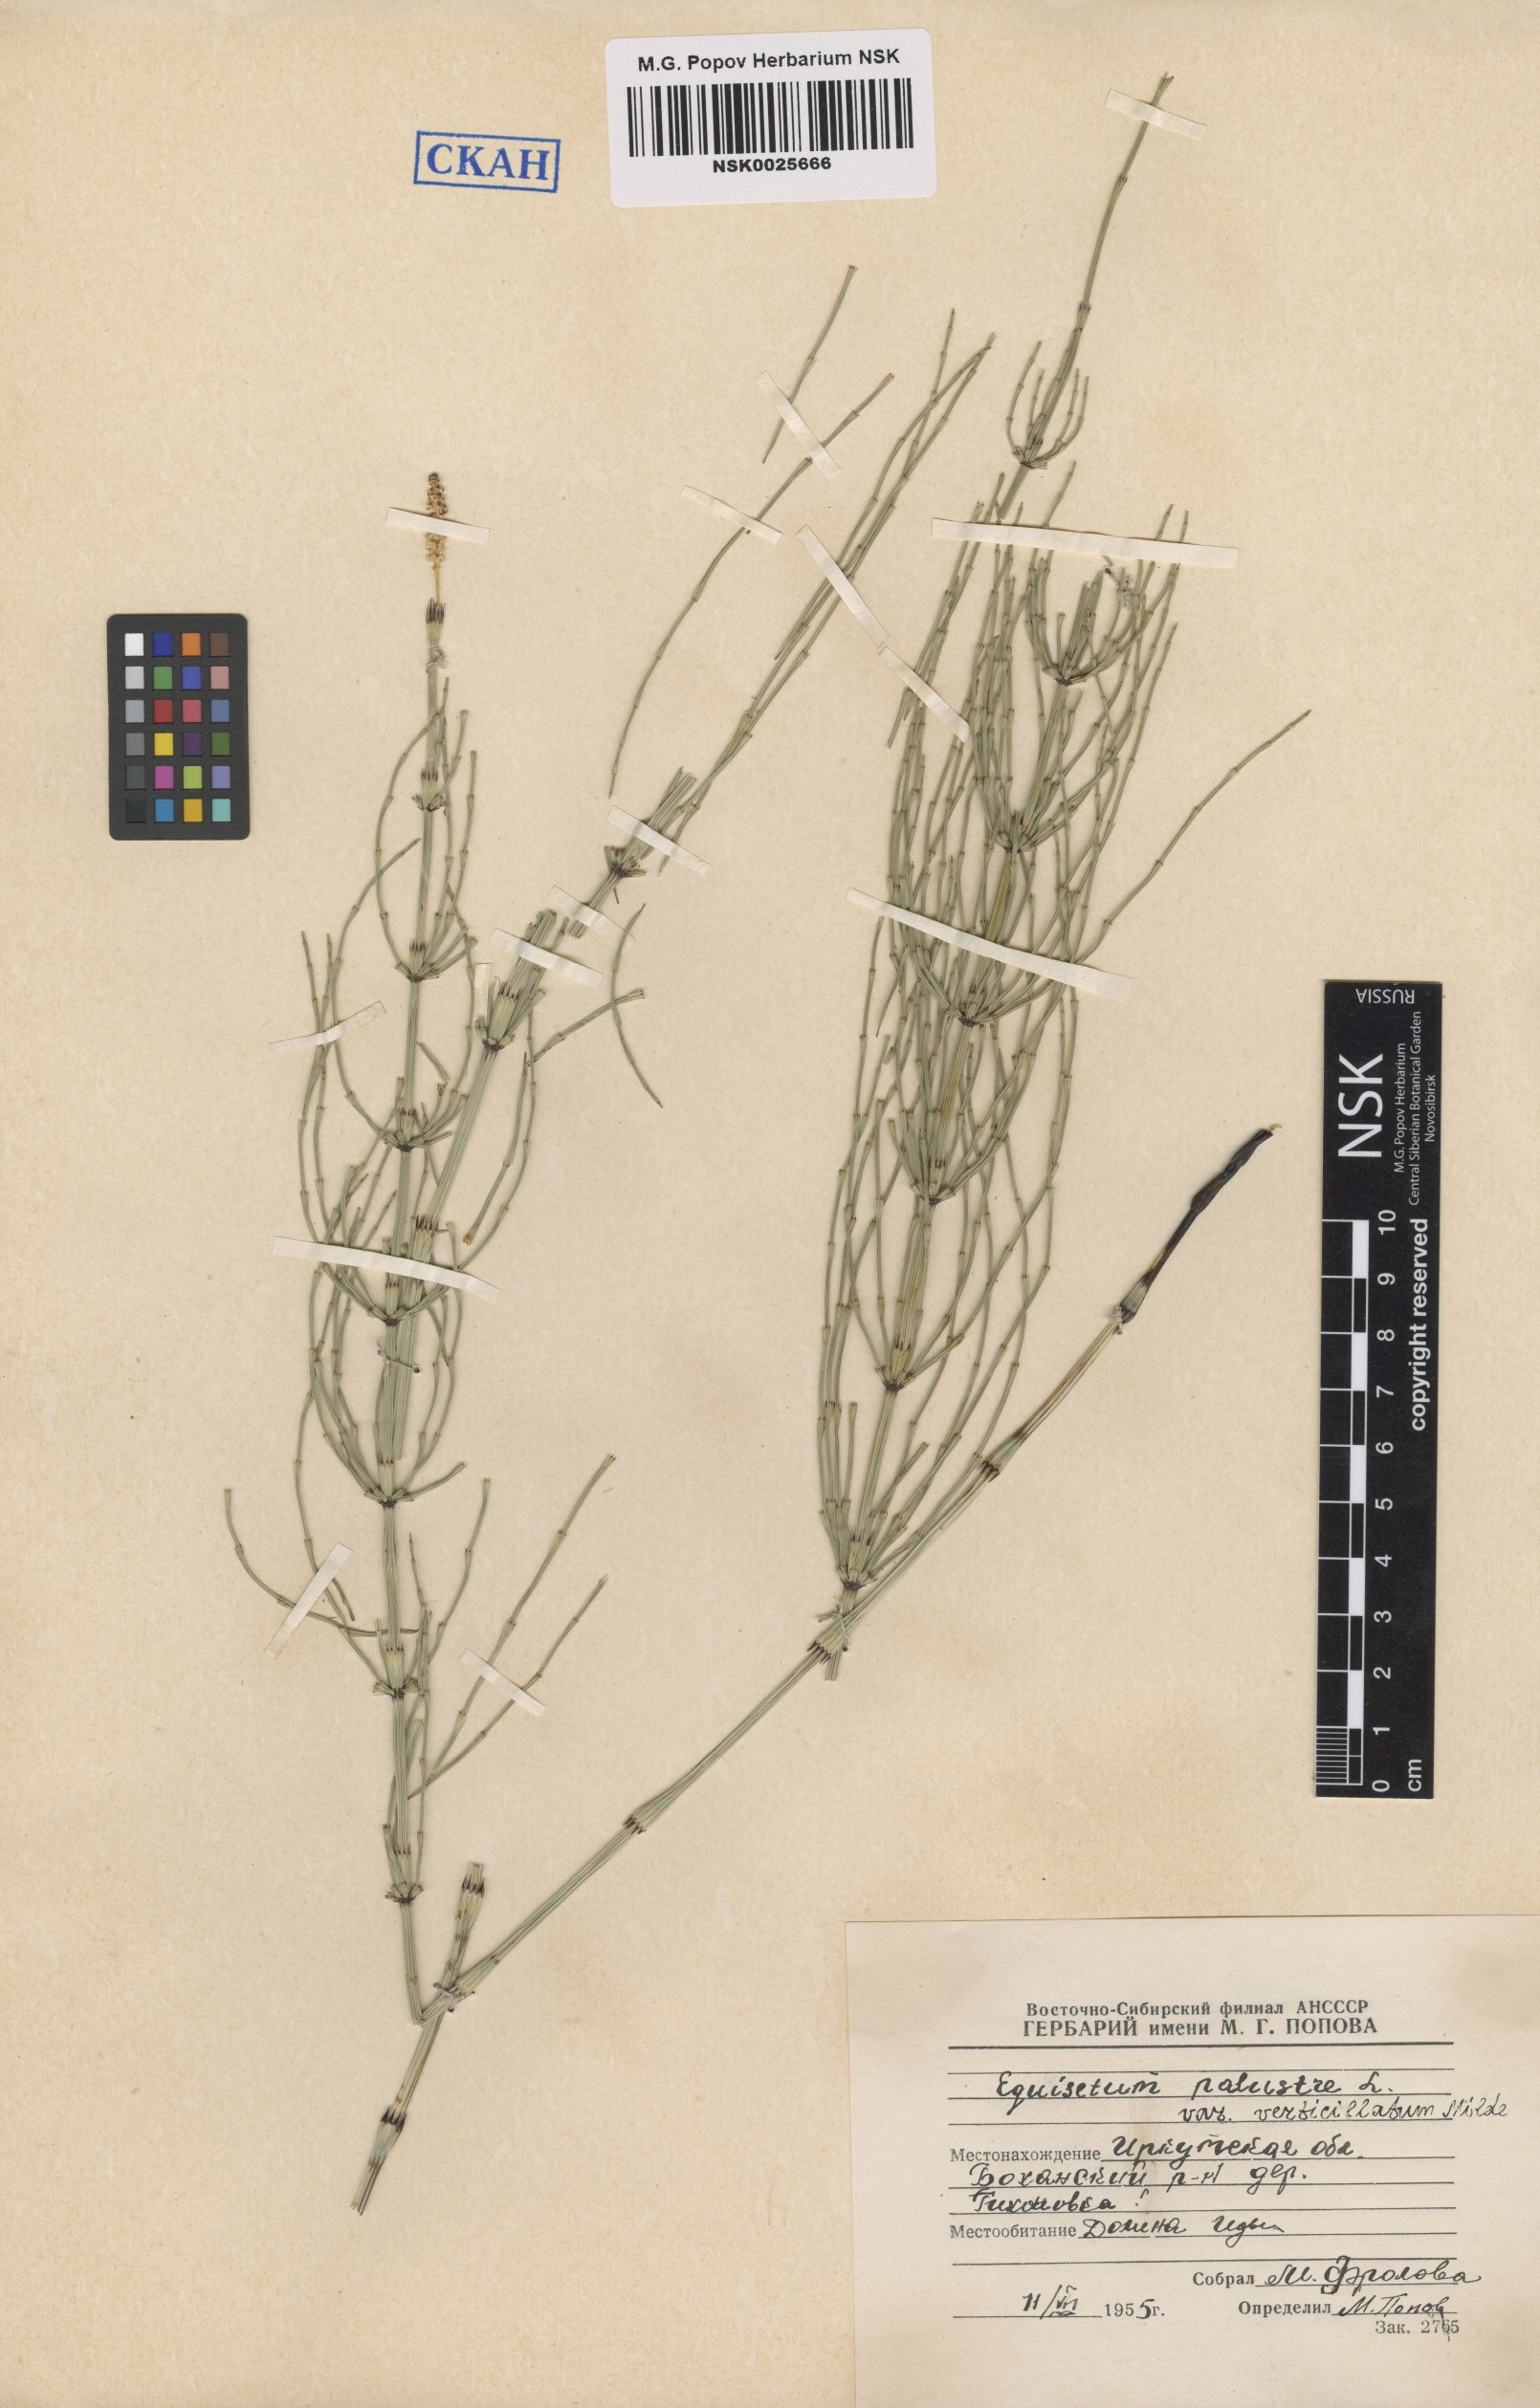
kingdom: Plantae
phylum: Tracheophyta
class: Polypodiopsida
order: Equisetales
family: Equisetaceae
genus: Equisetum
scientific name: Equisetum palustre
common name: Marsh horsetail
